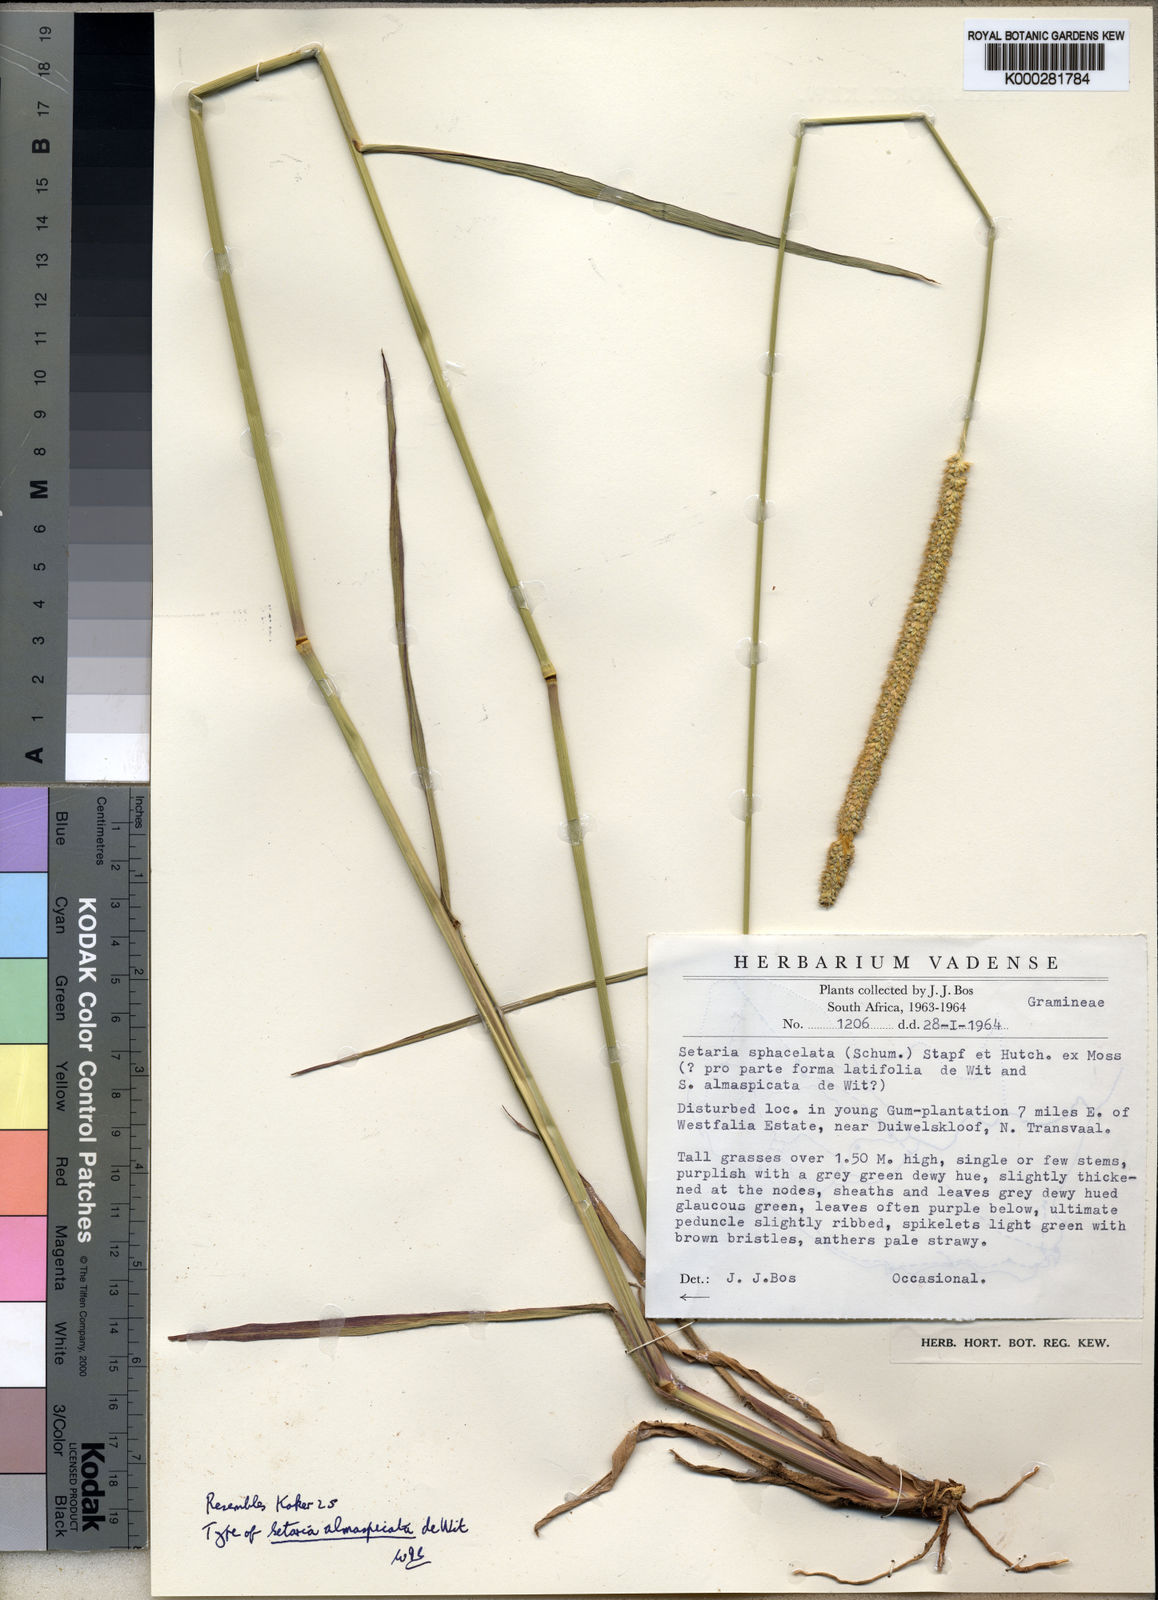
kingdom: Plantae
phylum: Tracheophyta
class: Liliopsida
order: Poales
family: Poaceae
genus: Setaria
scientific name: Setaria sphacelata
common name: African bristlegrass
